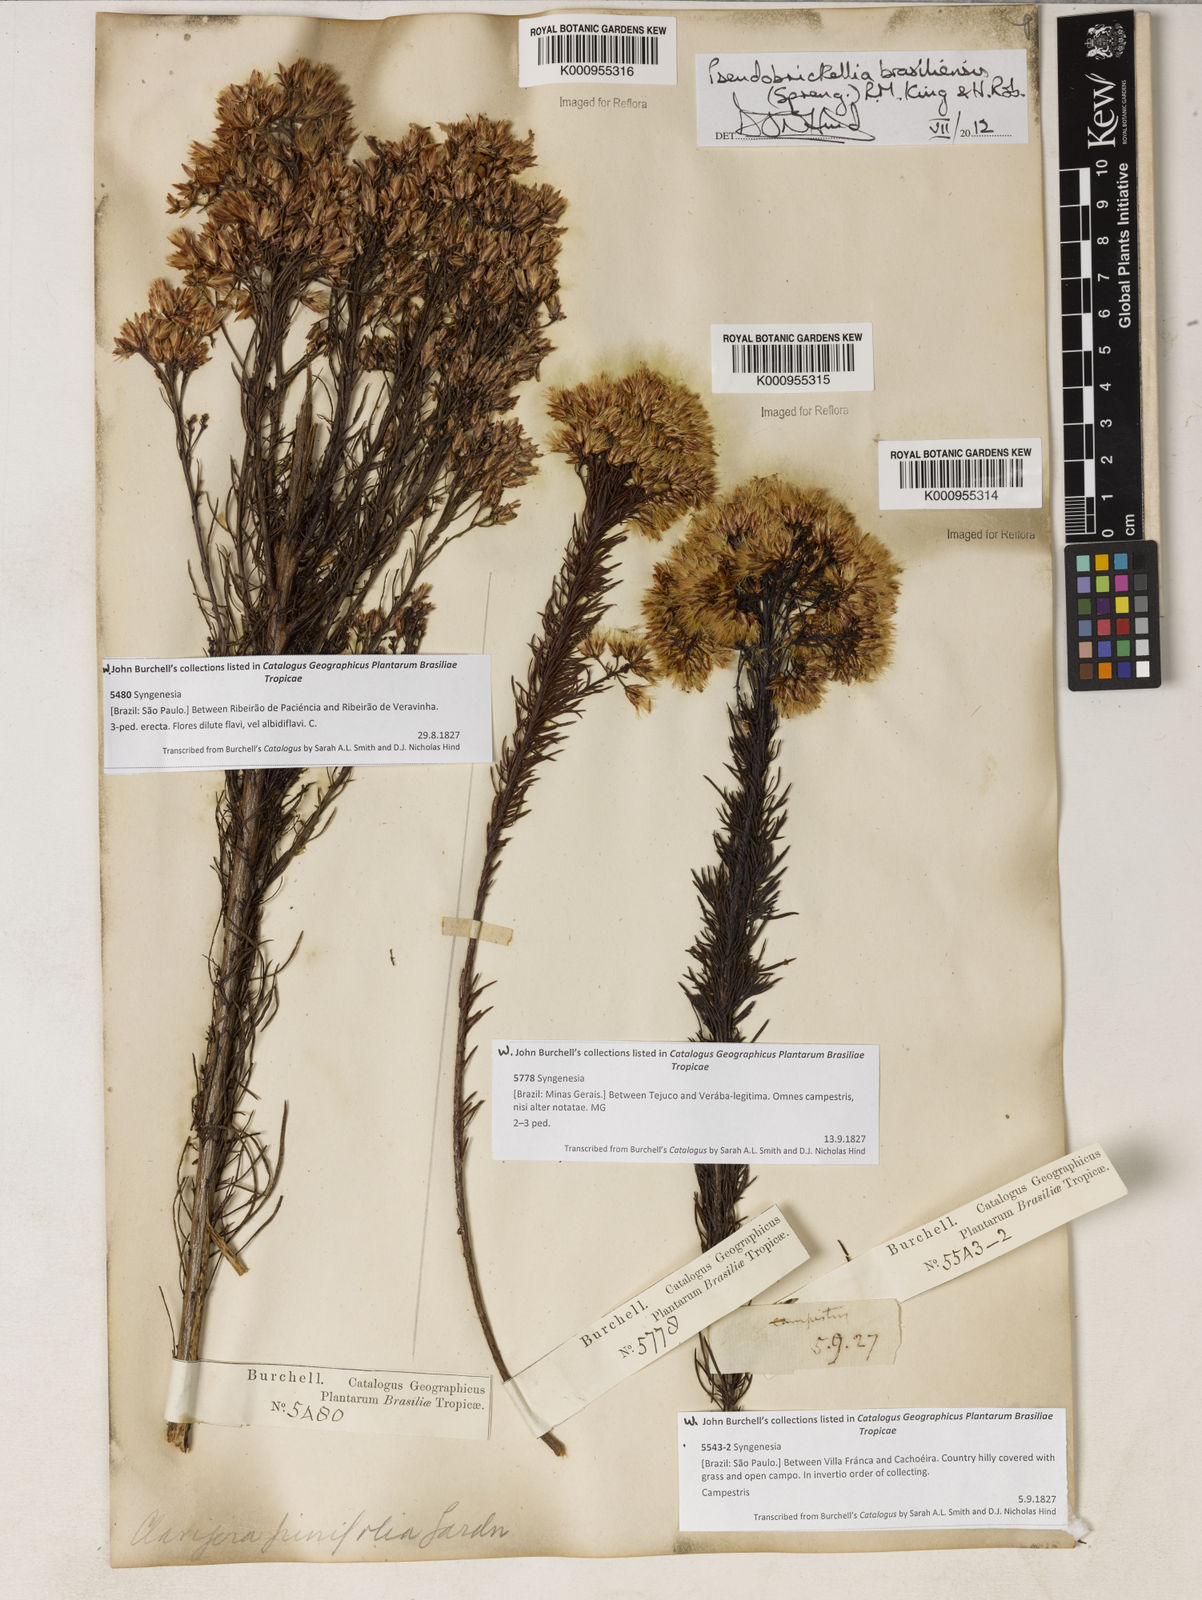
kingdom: Plantae
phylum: Tracheophyta
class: Magnoliopsida
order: Asterales
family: Asteraceae
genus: Pseudobrickellia
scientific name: Pseudobrickellia brasiliensis
